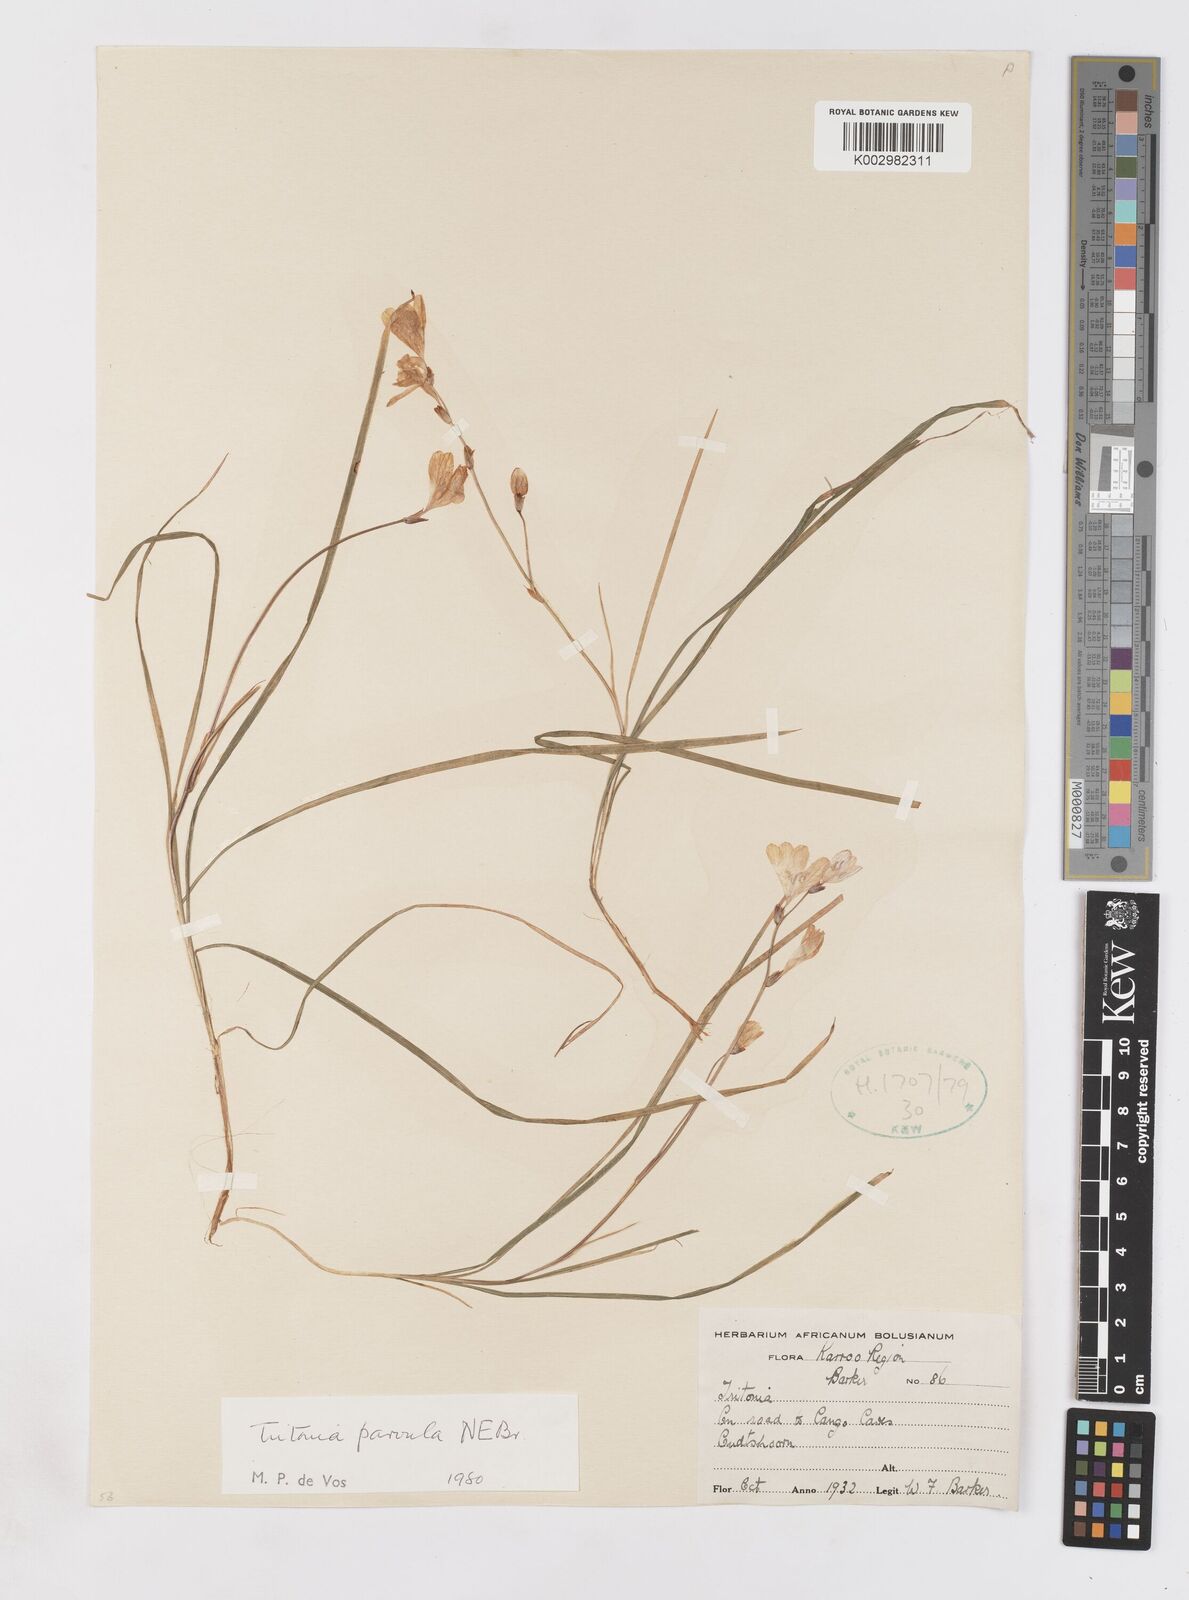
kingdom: Plantae
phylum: Tracheophyta
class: Liliopsida
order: Asparagales
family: Iridaceae
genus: Tritonia
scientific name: Tritonia parvula
